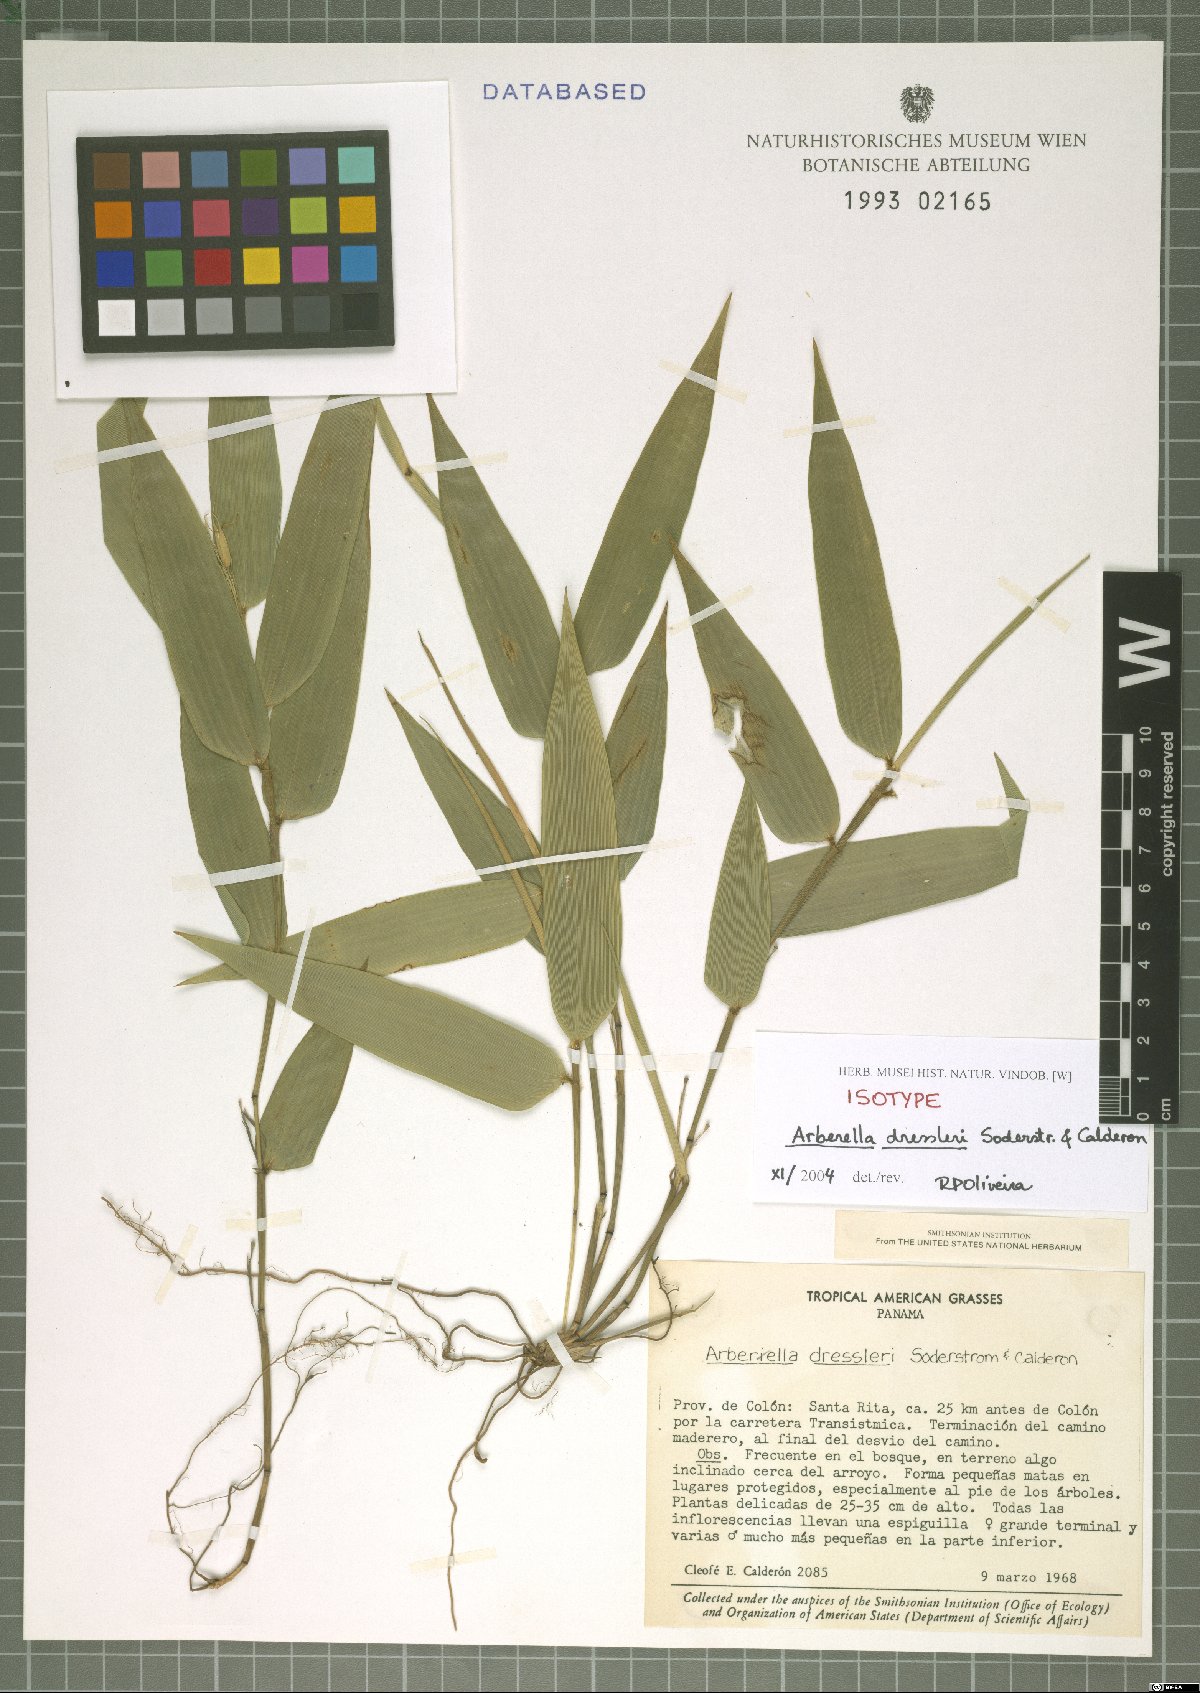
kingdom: Plantae
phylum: Tracheophyta
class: Liliopsida
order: Poales
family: Poaceae
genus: Arberella
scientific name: Arberella dressleri
